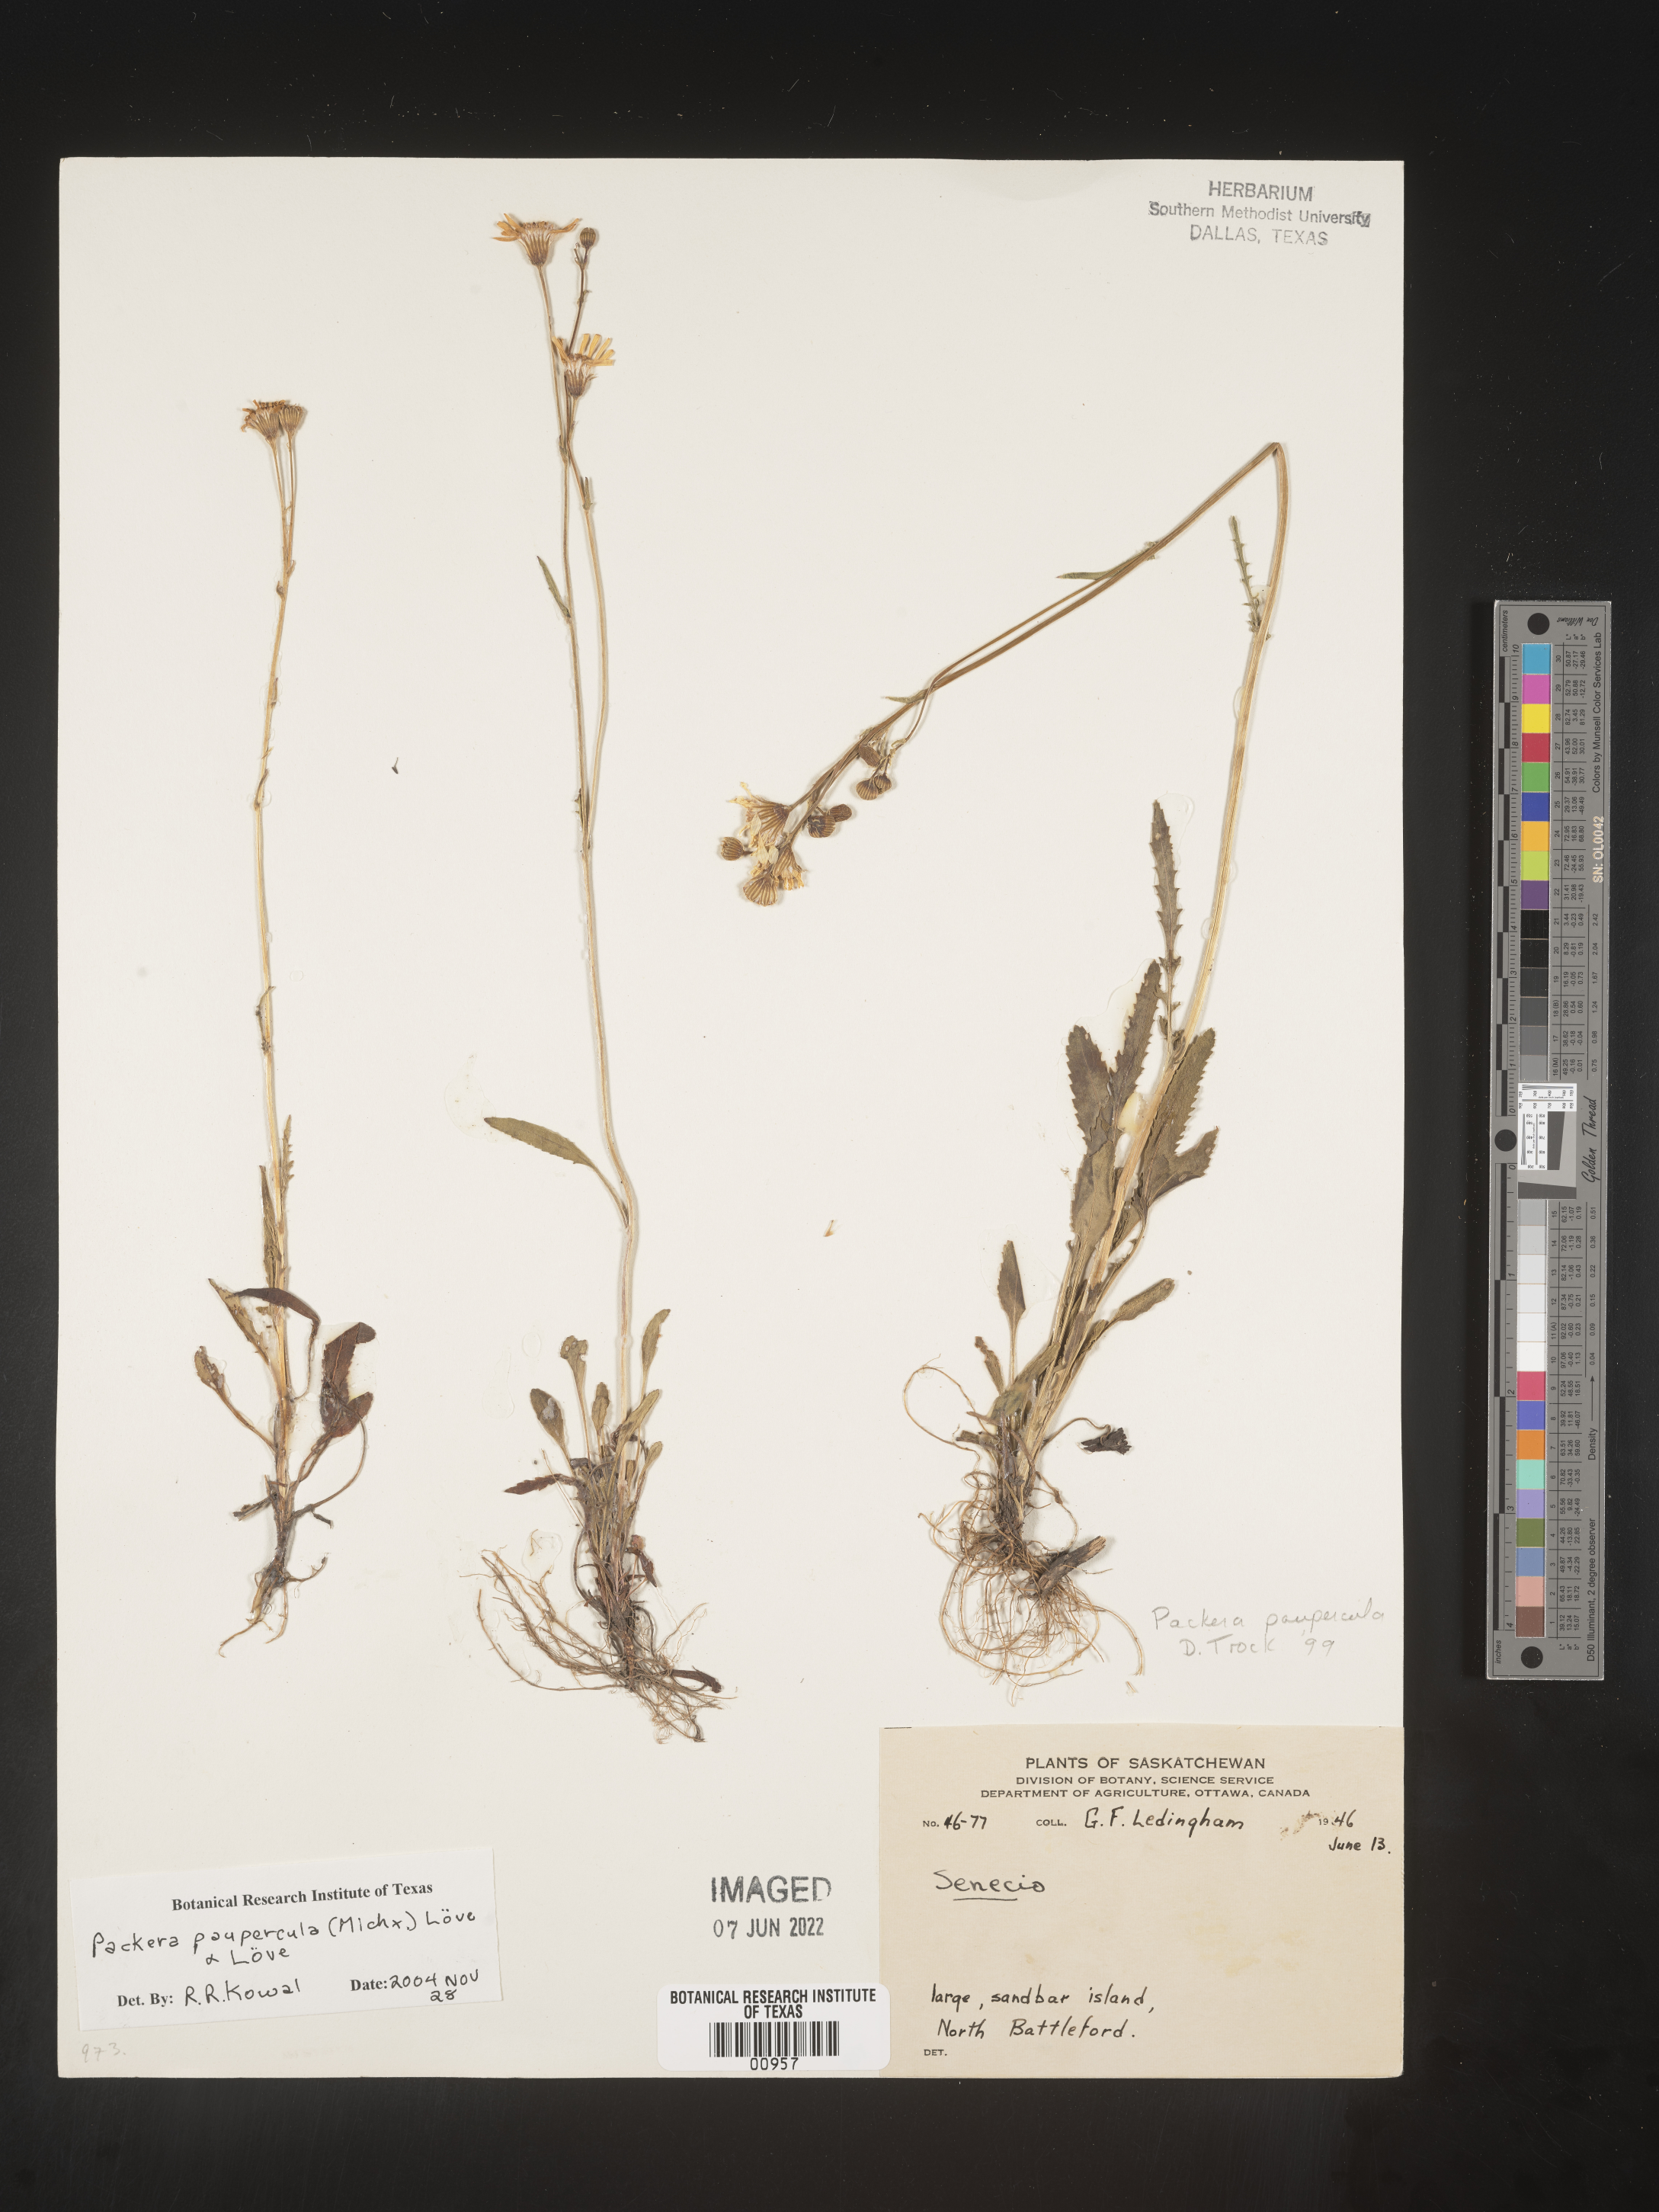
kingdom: Plantae
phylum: Tracheophyta
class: Magnoliopsida
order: Asterales
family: Asteraceae
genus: Packera
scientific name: Packera paupercula
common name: Balsam groundsel
